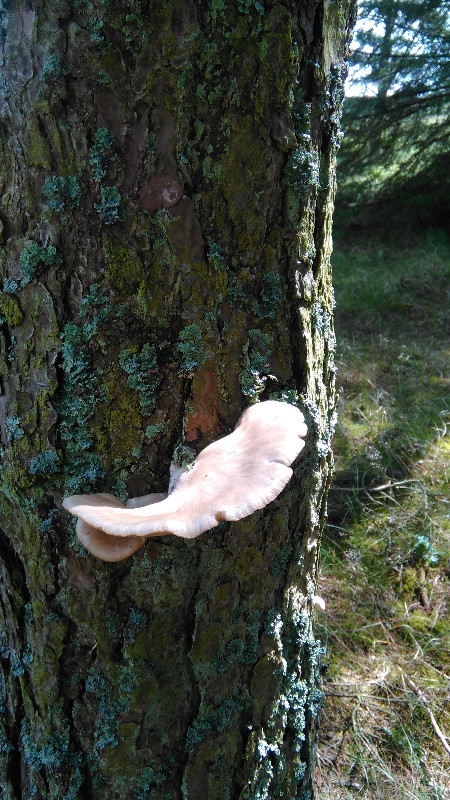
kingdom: Fungi
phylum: Basidiomycota
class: Agaricomycetes
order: Agaricales
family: Pleurotaceae
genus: Pleurotus
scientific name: Pleurotus ostreatus
